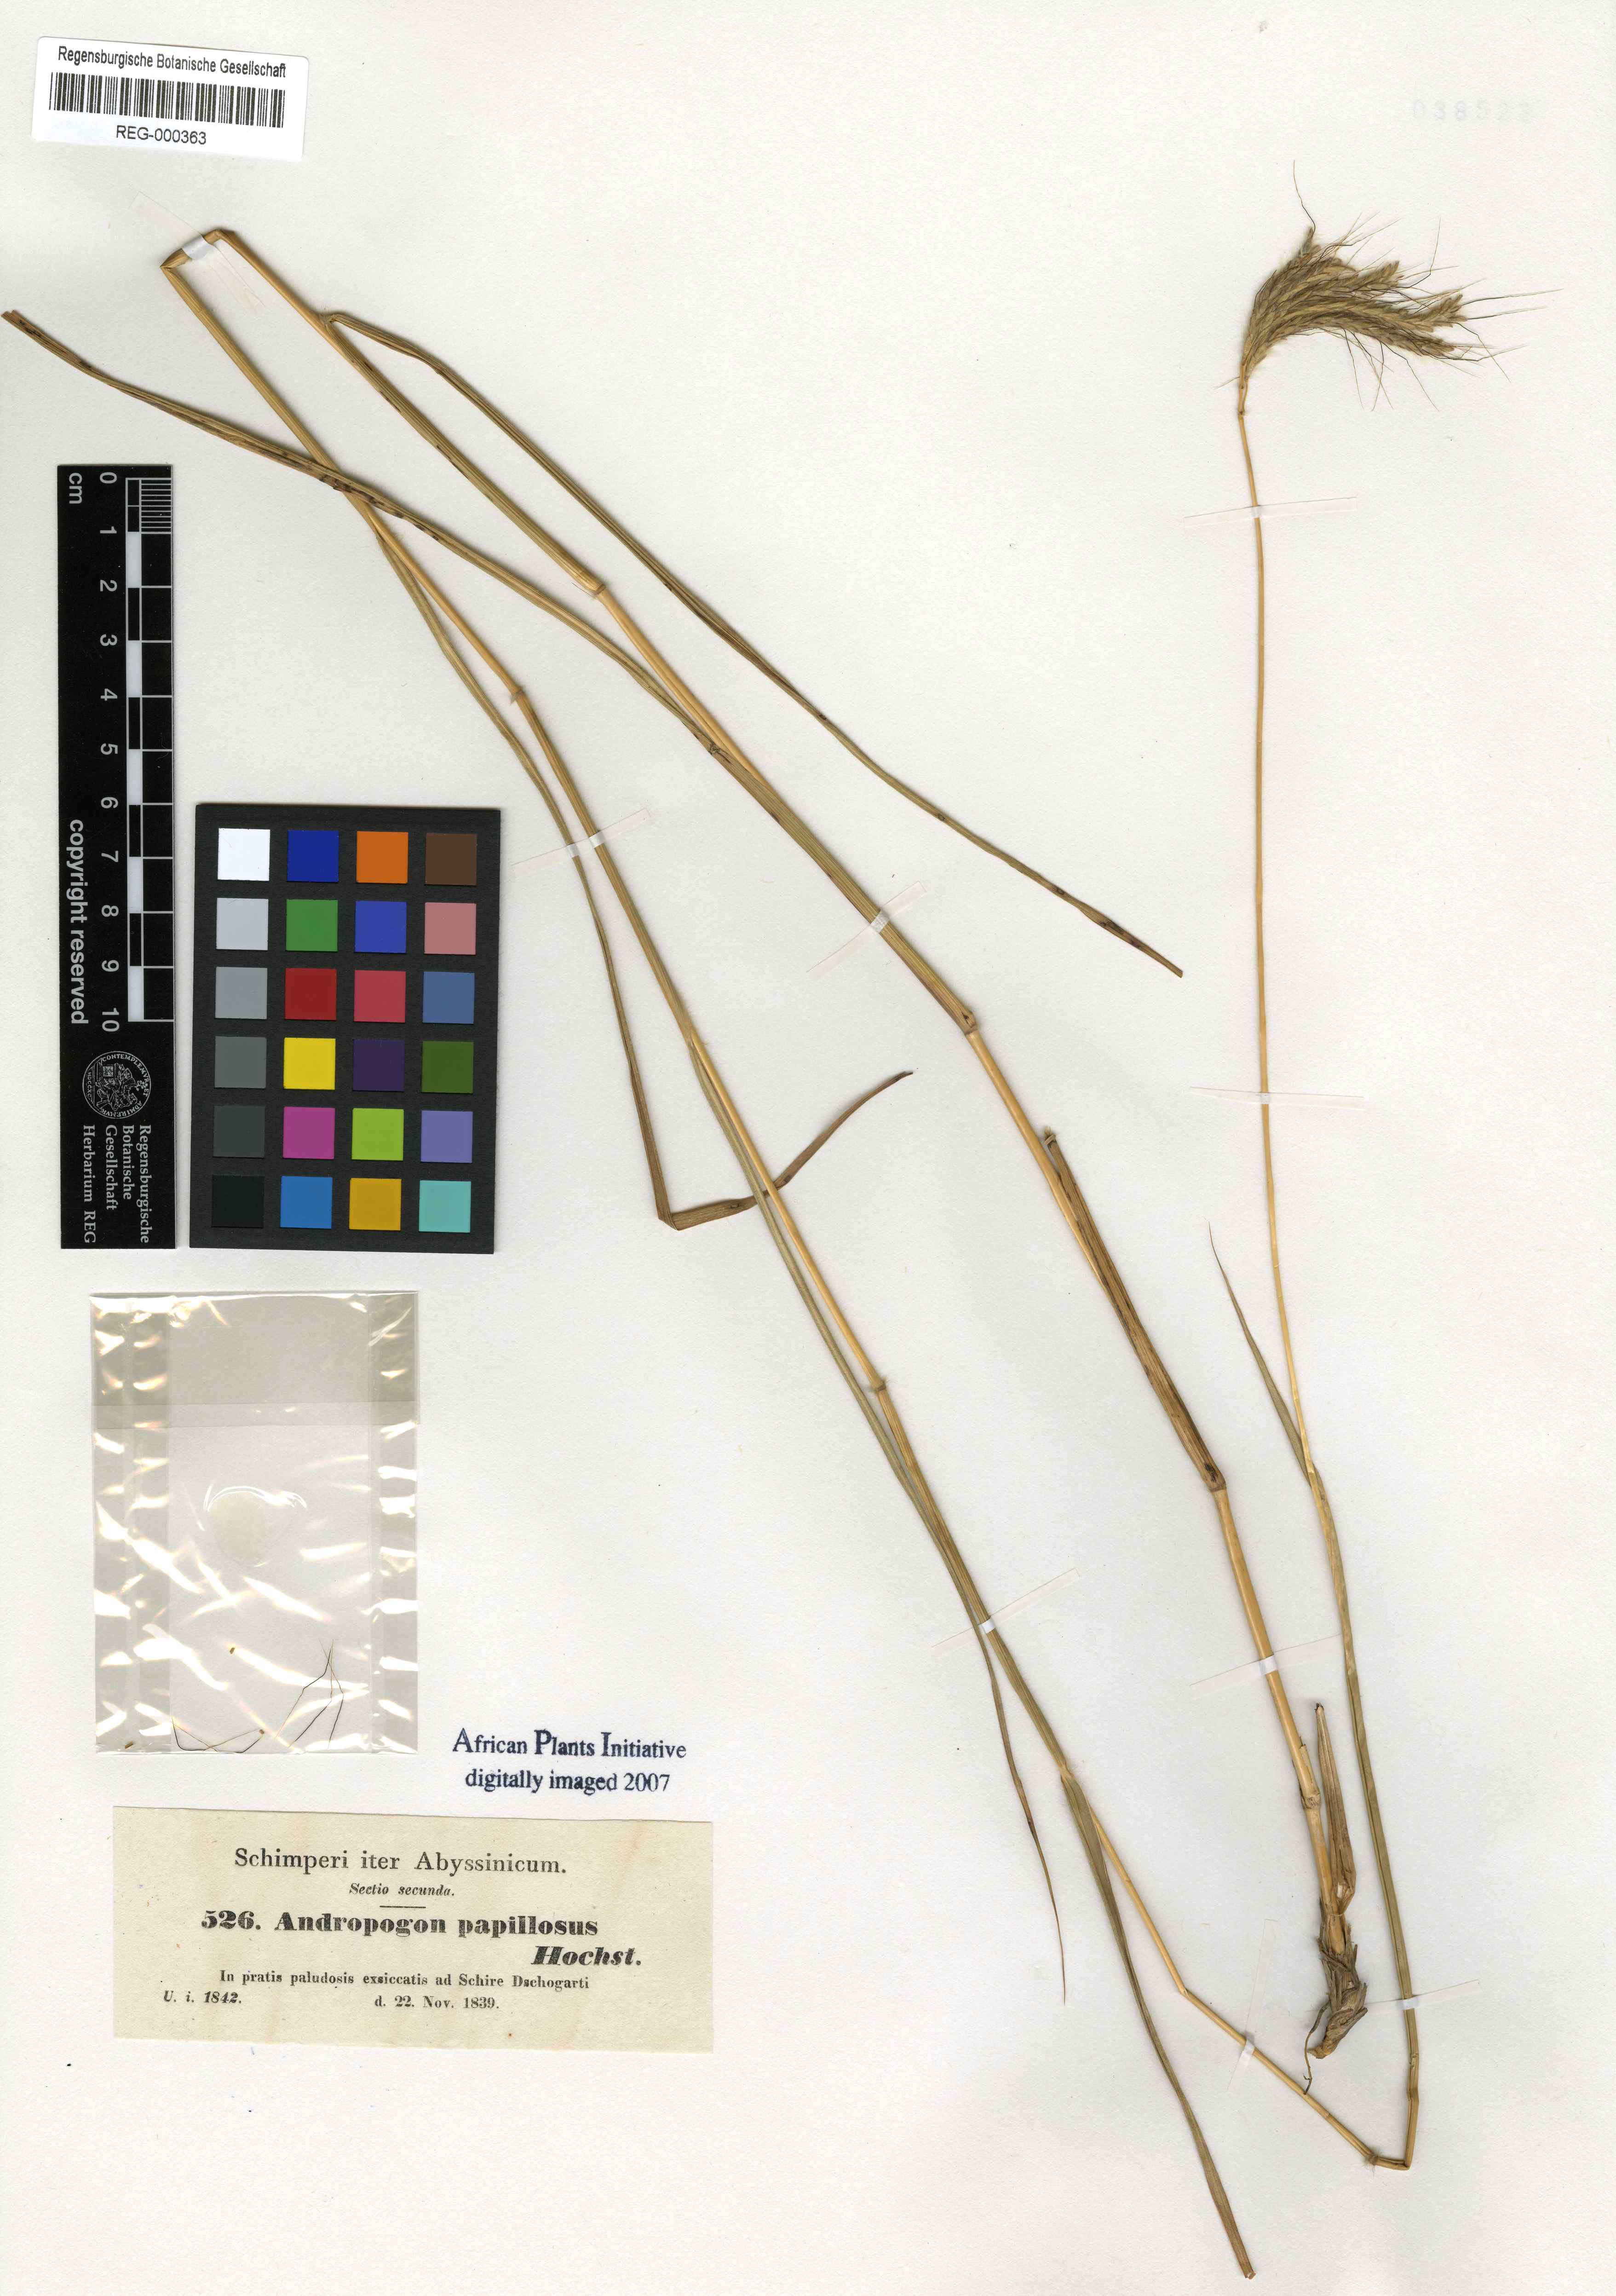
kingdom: Plantae
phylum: Tracheophyta
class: Liliopsida
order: Poales
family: Poaceae
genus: Dichanthium
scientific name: Dichanthium annulatum
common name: Kleberg's bluestem
